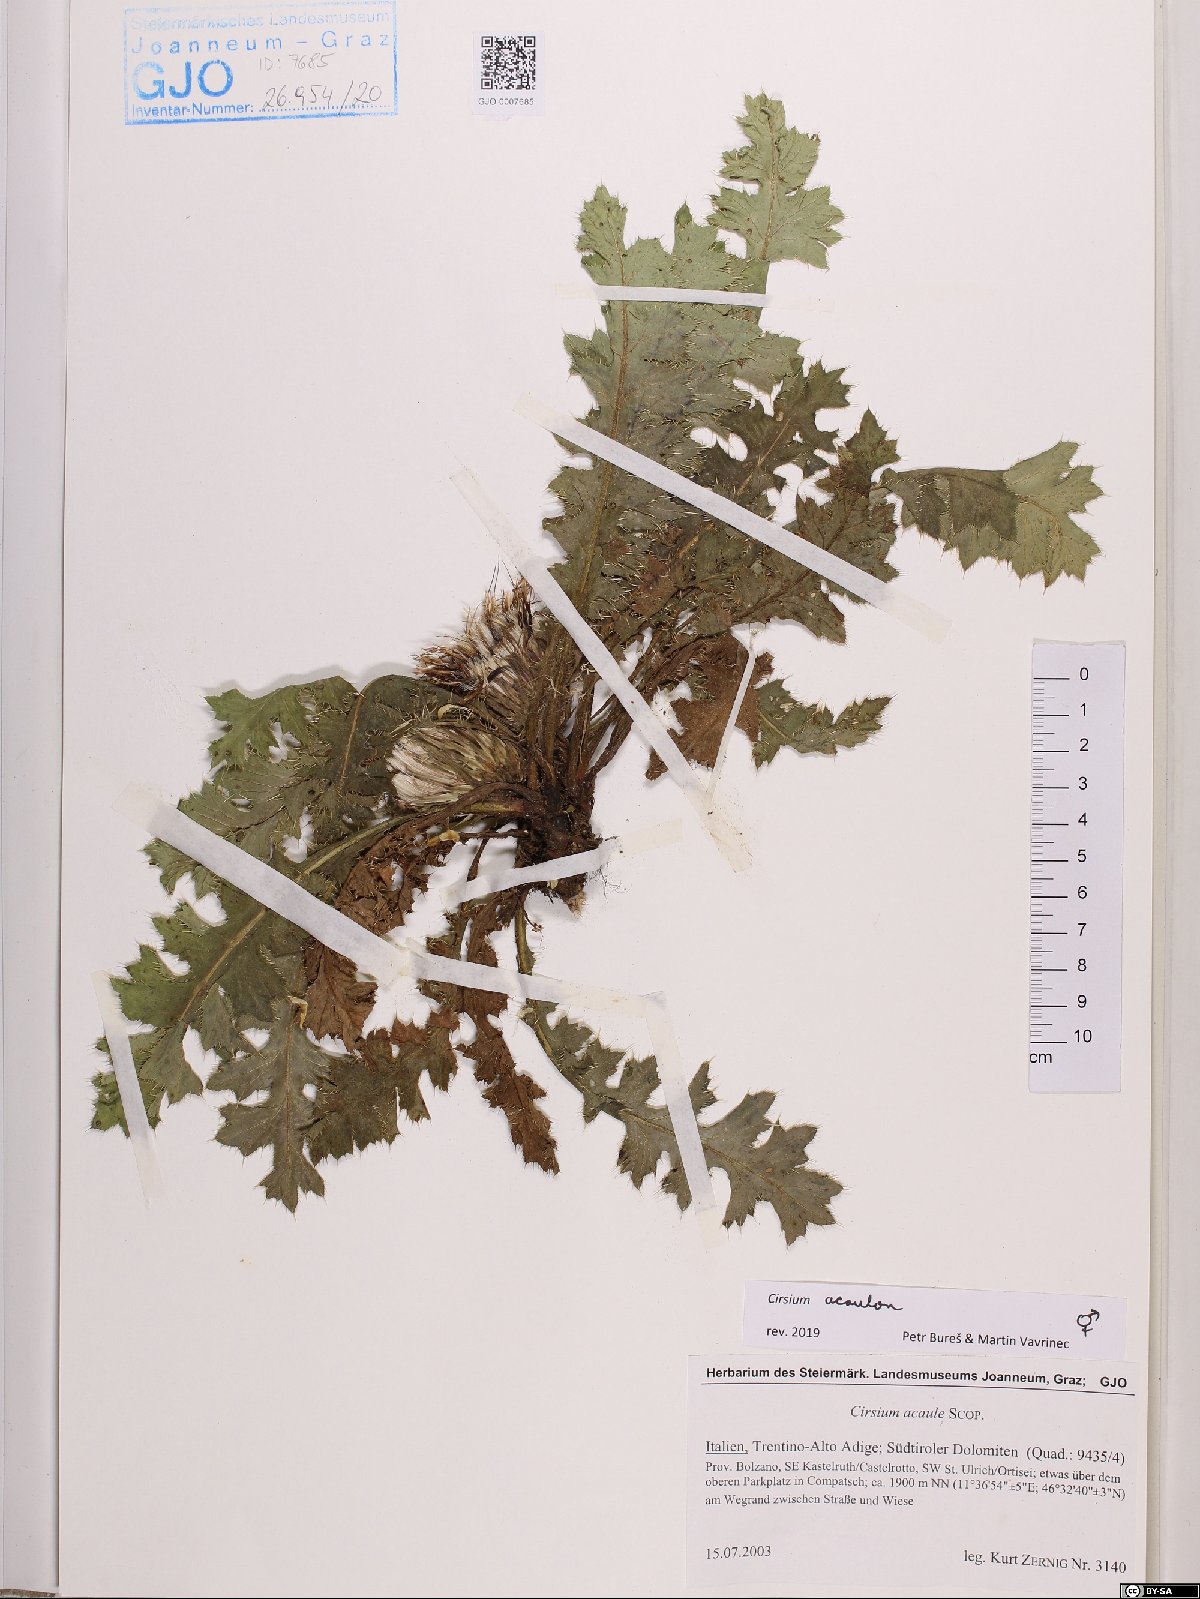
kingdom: Plantae
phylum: Tracheophyta
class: Magnoliopsida
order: Asterales
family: Asteraceae
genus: Cirsium
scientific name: Cirsium acaule
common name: Dwarf thistle
